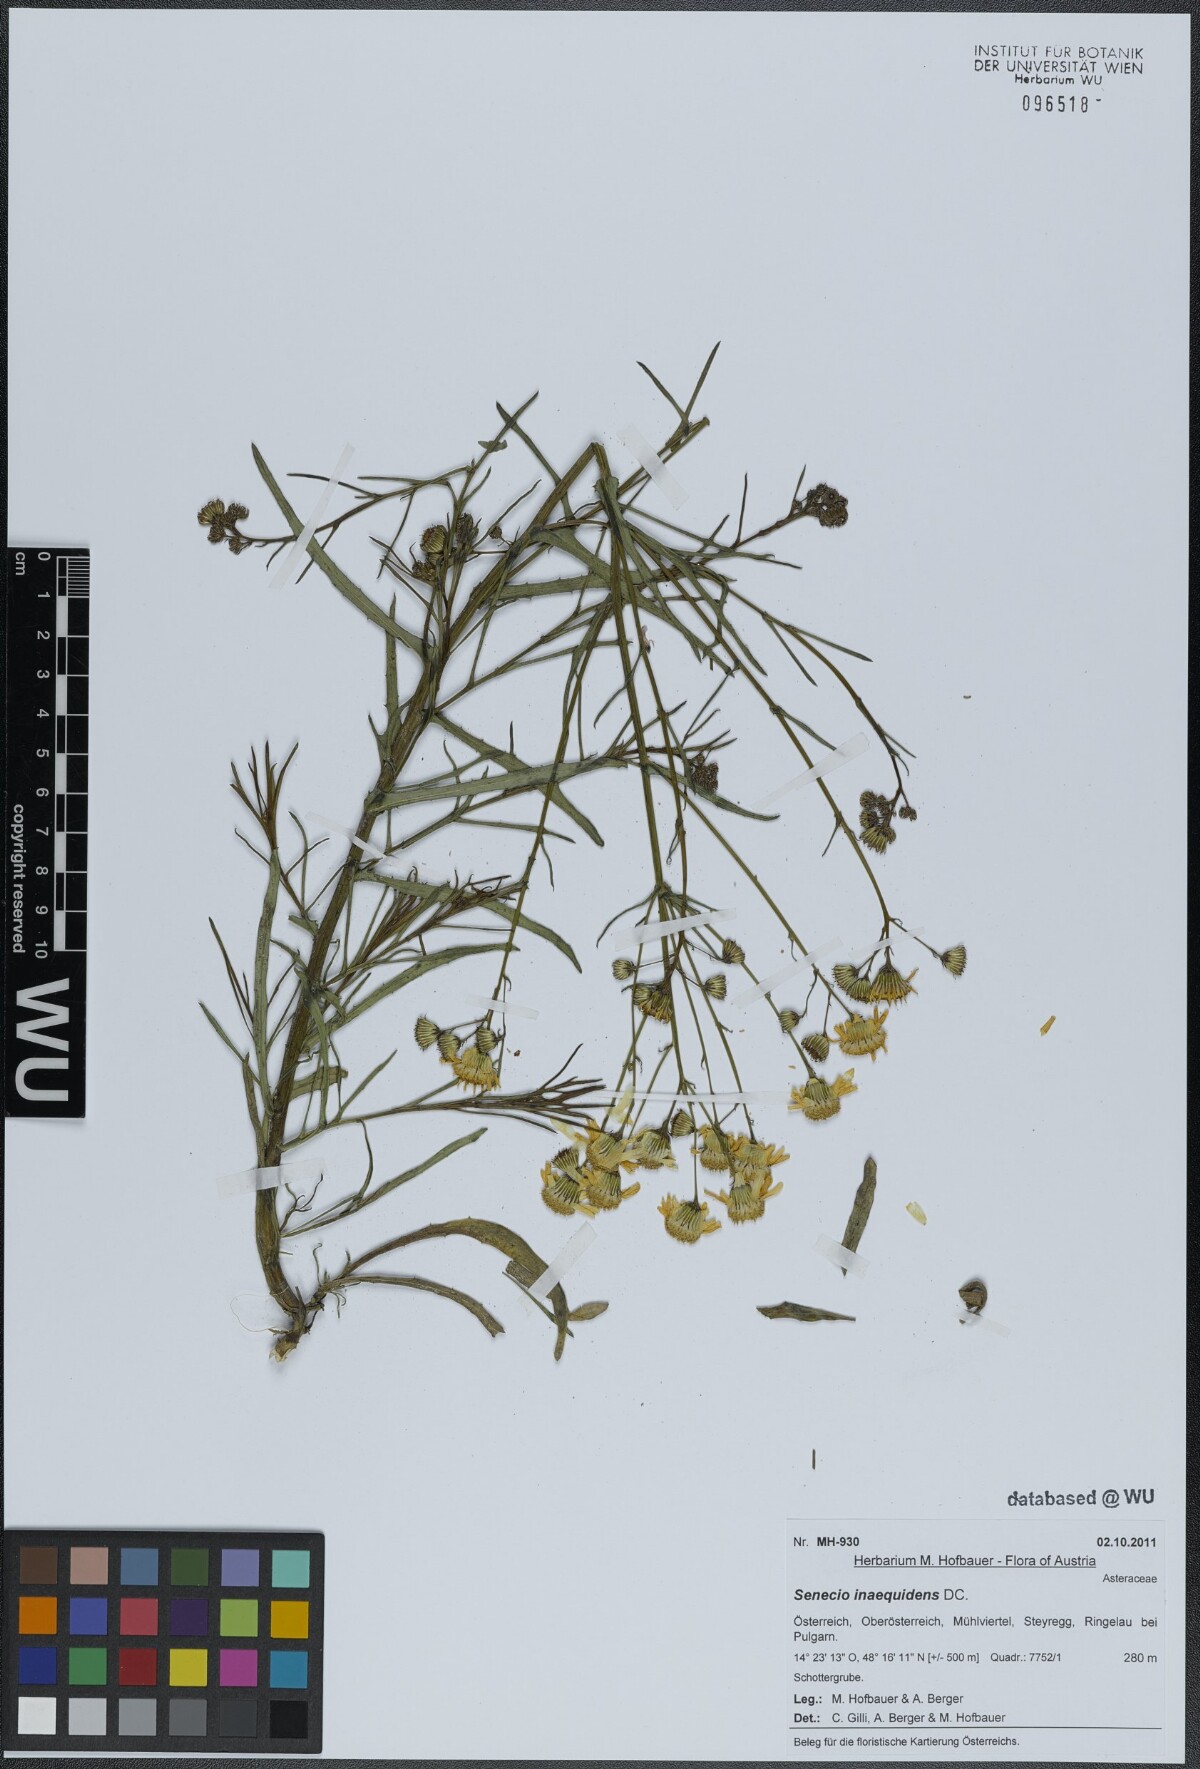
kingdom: Plantae
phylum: Tracheophyta
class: Magnoliopsida
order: Asterales
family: Asteraceae
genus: Senecio
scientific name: Senecio inaequidens
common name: Narrow-leaved ragwort
